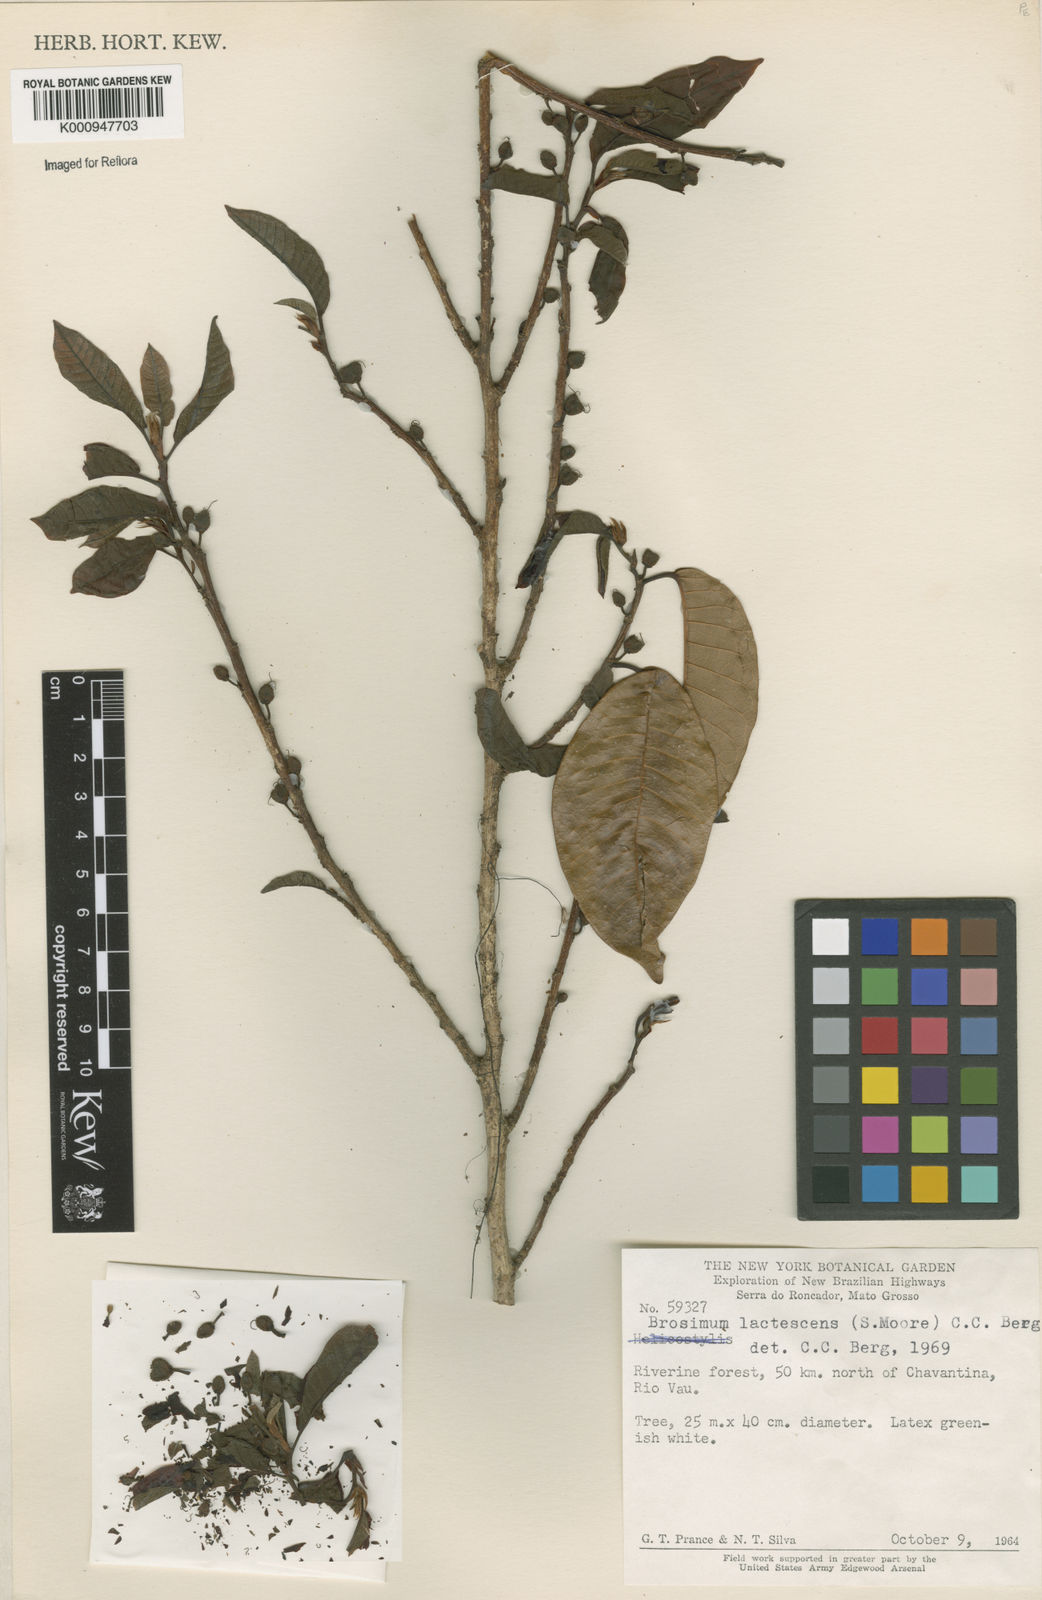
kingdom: Plantae
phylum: Tracheophyta
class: Magnoliopsida
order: Rosales
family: Moraceae
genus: Brosimum
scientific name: Brosimum lactescens
